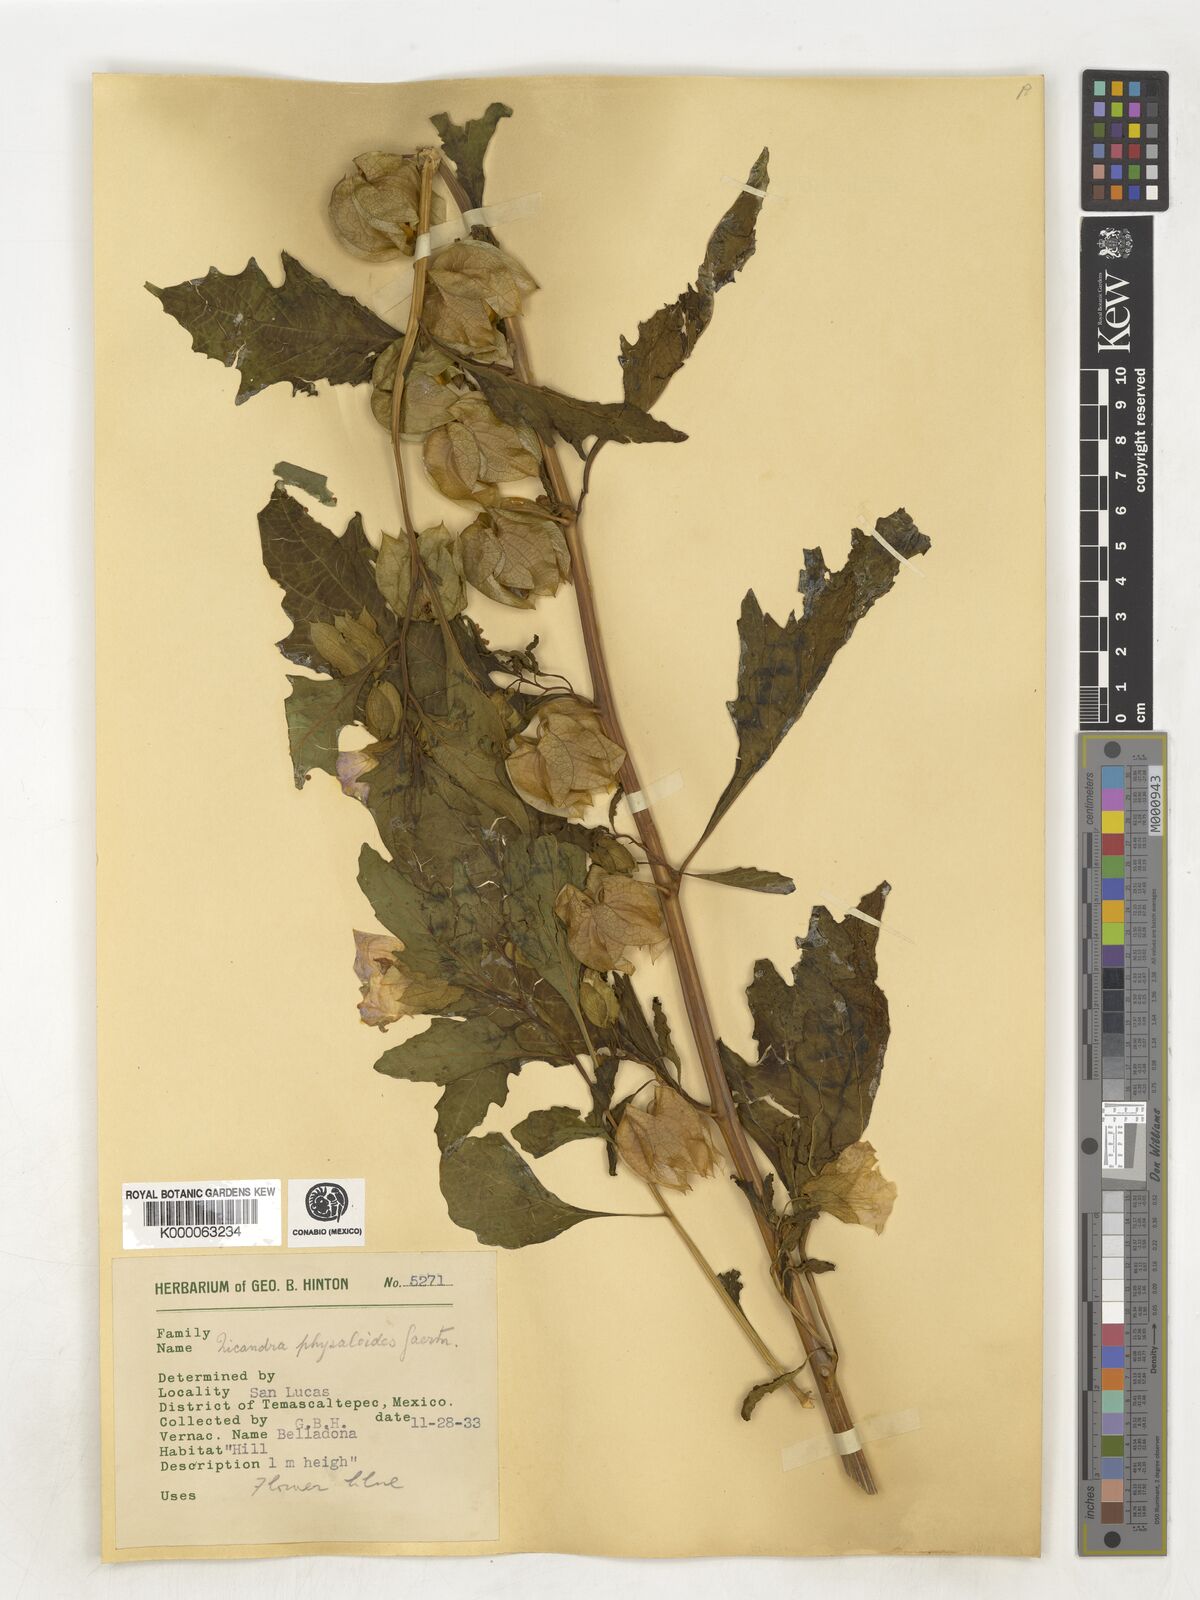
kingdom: Plantae
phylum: Tracheophyta
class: Magnoliopsida
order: Solanales
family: Solanaceae
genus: Nicandra
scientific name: Nicandra
